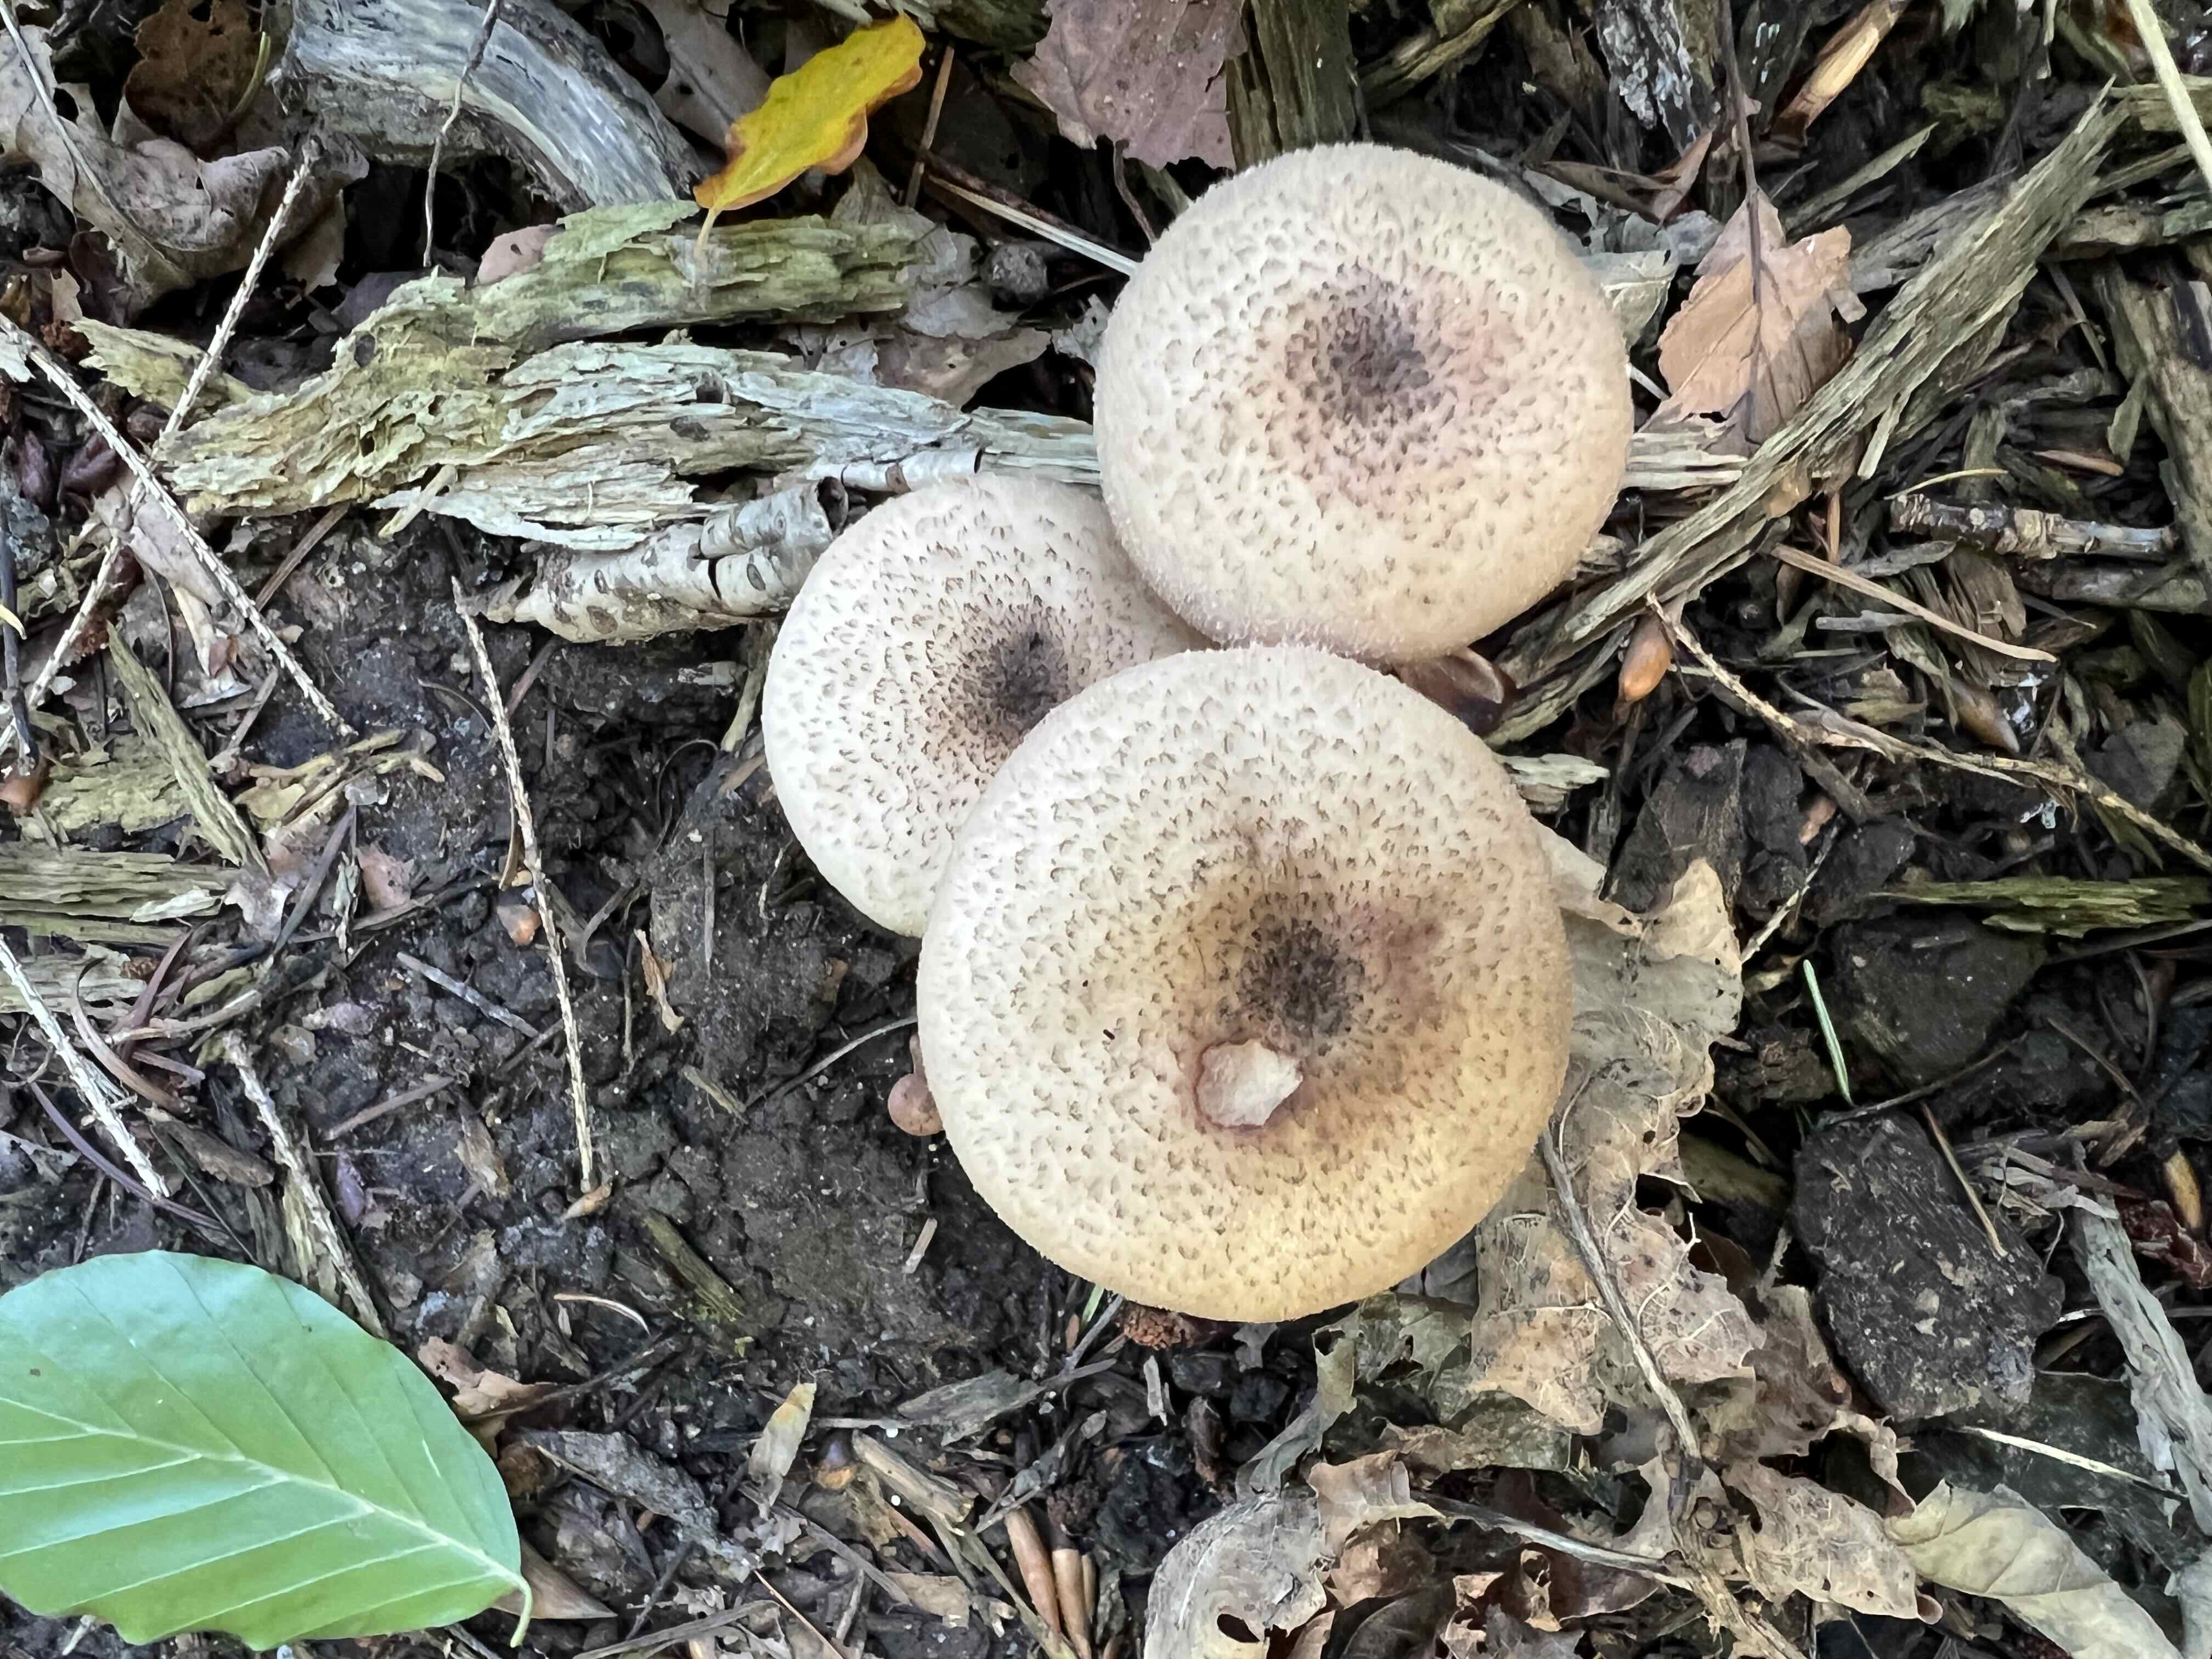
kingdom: Fungi
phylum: Basidiomycota
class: Agaricomycetes
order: Agaricales
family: Physalacriaceae
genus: Armillaria
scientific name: Armillaria
